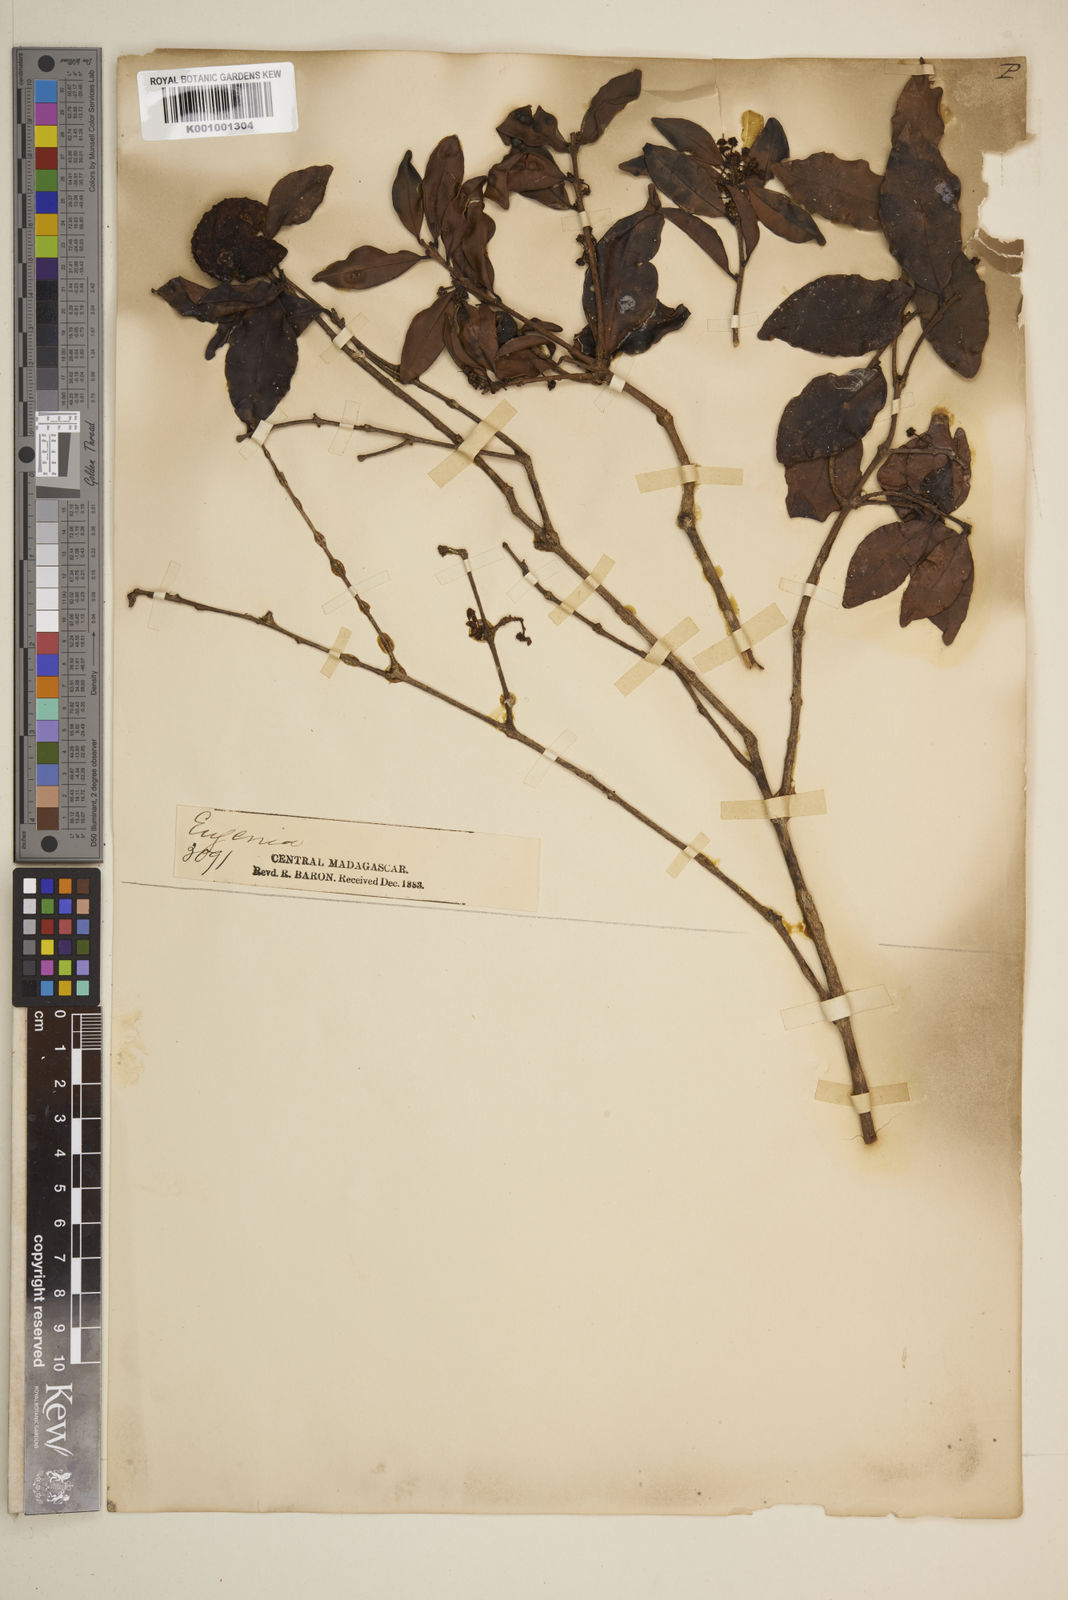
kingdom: Plantae
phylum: Tracheophyta
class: Magnoliopsida
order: Myrtales
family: Myrtaceae
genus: Eugenia
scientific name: Eugenia zygophylla
